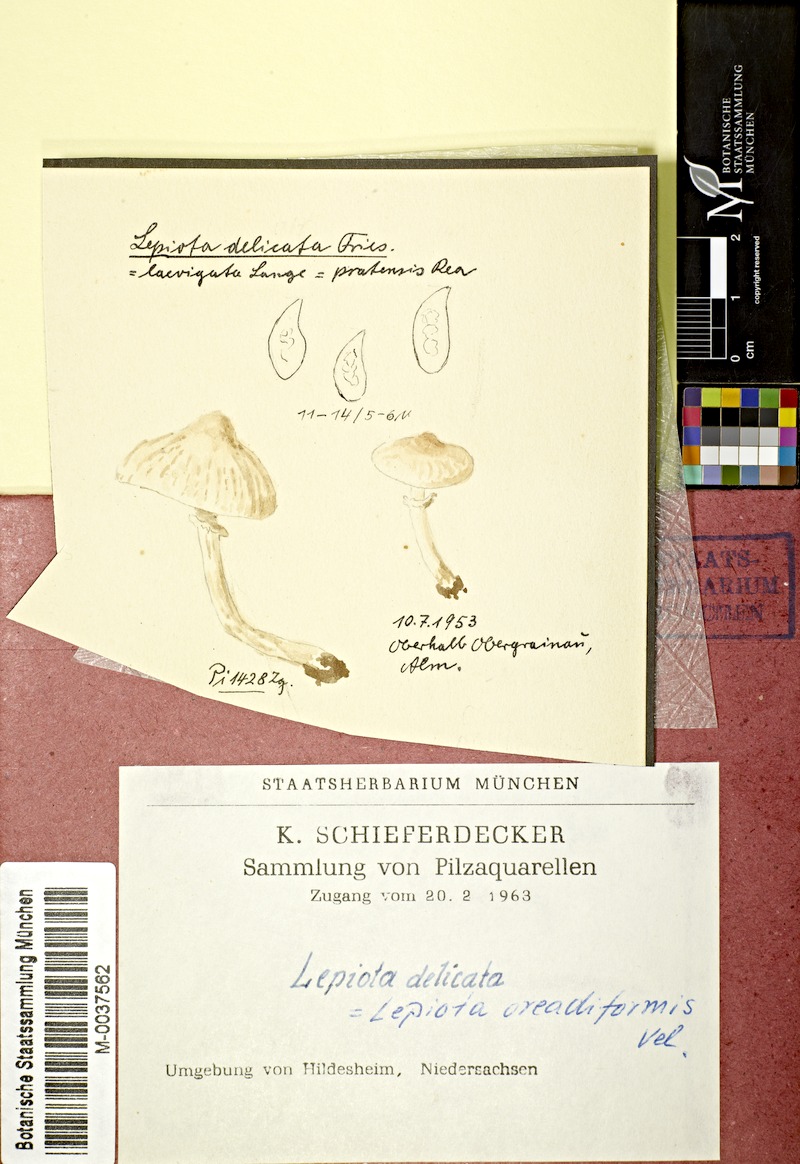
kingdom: Fungi
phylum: Basidiomycota
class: Agaricomycetes
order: Agaricales
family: Agaricaceae
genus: Lepiota
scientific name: Lepiota oreadiformis
